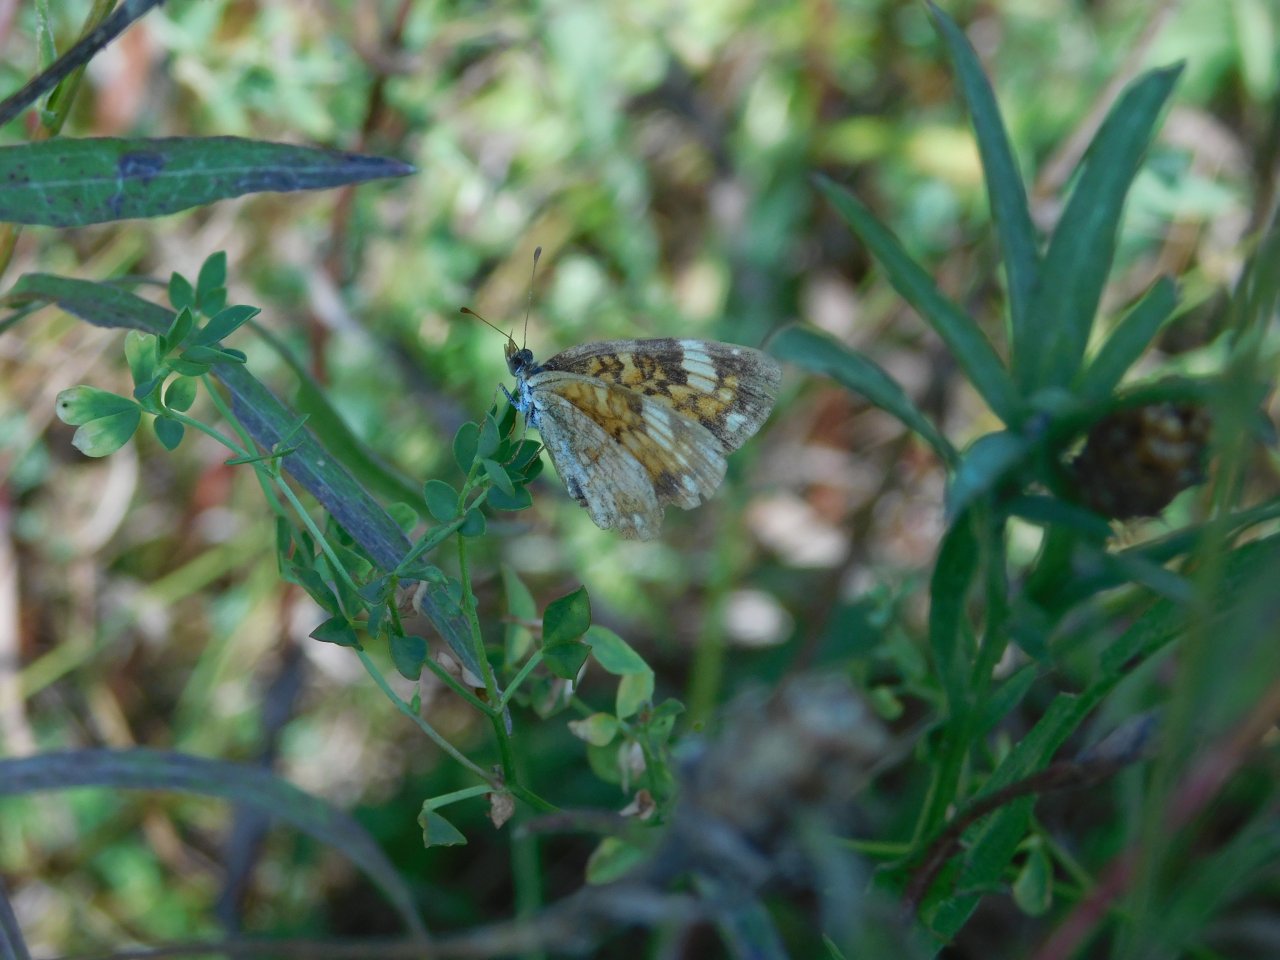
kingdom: Animalia
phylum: Arthropoda
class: Insecta
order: Lepidoptera
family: Nymphalidae
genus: Phyciodes
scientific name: Phyciodes tharos
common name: Pearl Crescent
